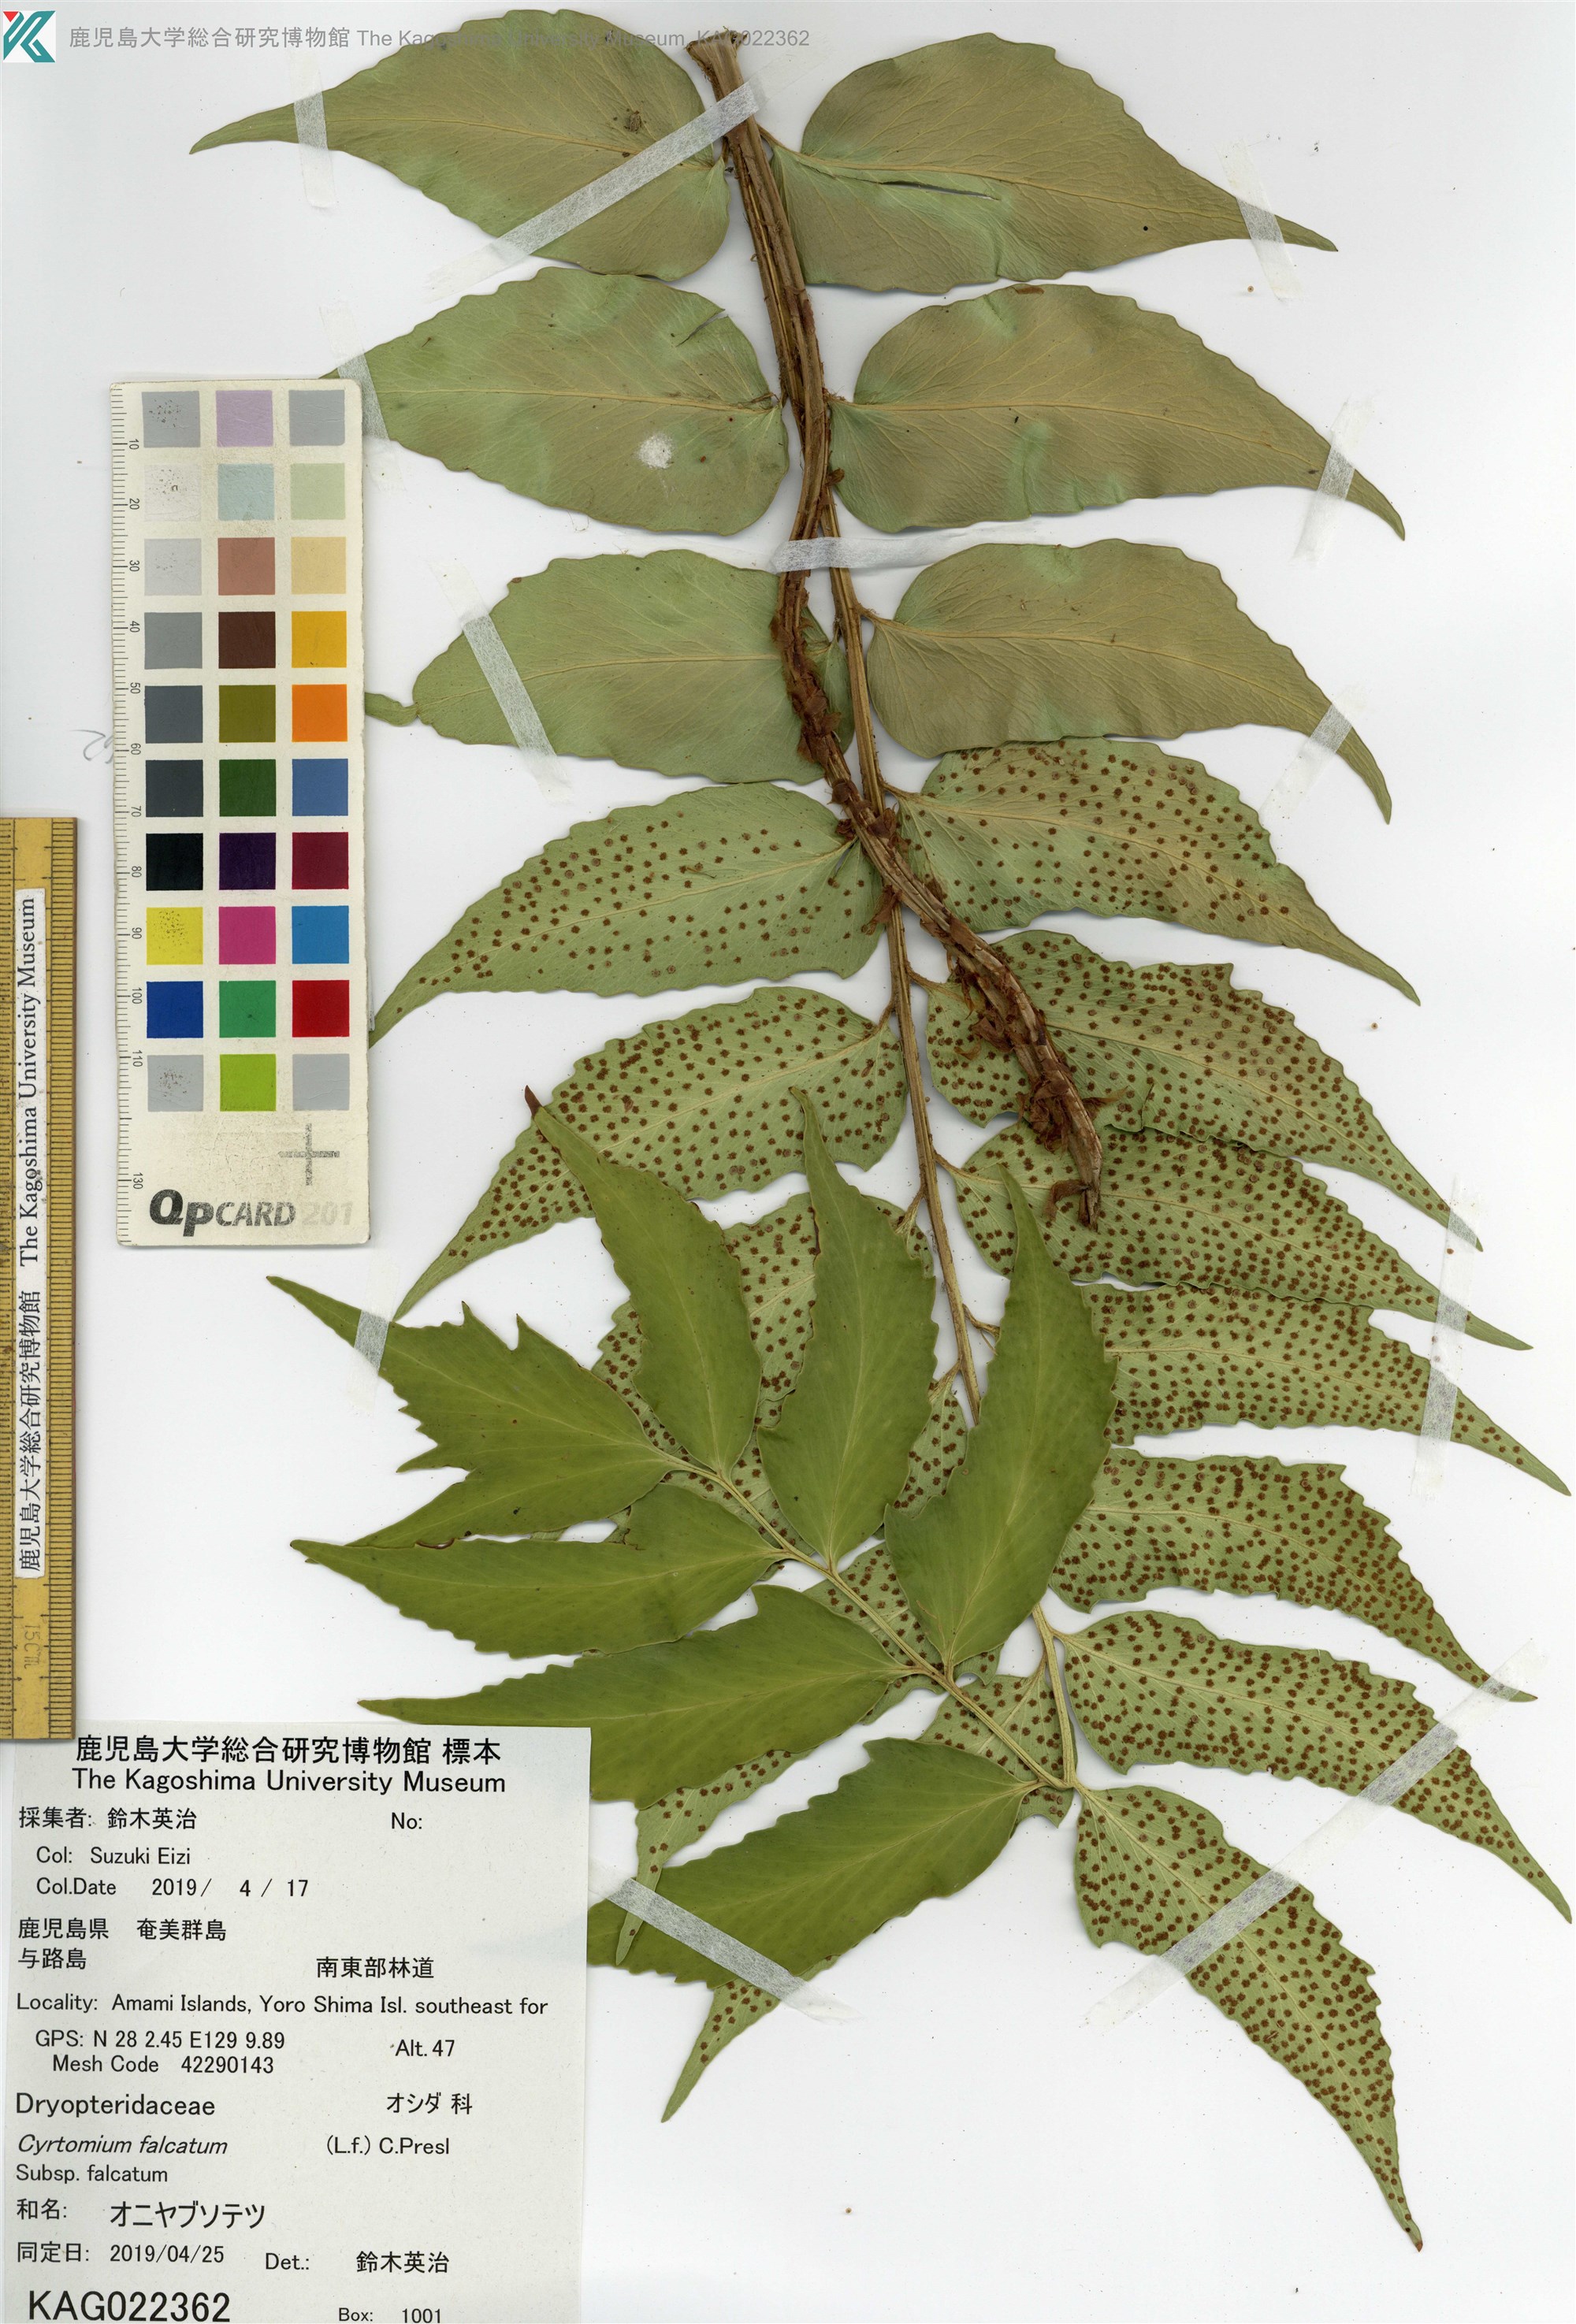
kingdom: Plantae
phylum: Tracheophyta
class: Polypodiopsida
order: Polypodiales
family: Dryopteridaceae
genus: Cyrtomium
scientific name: Cyrtomium falcatum
